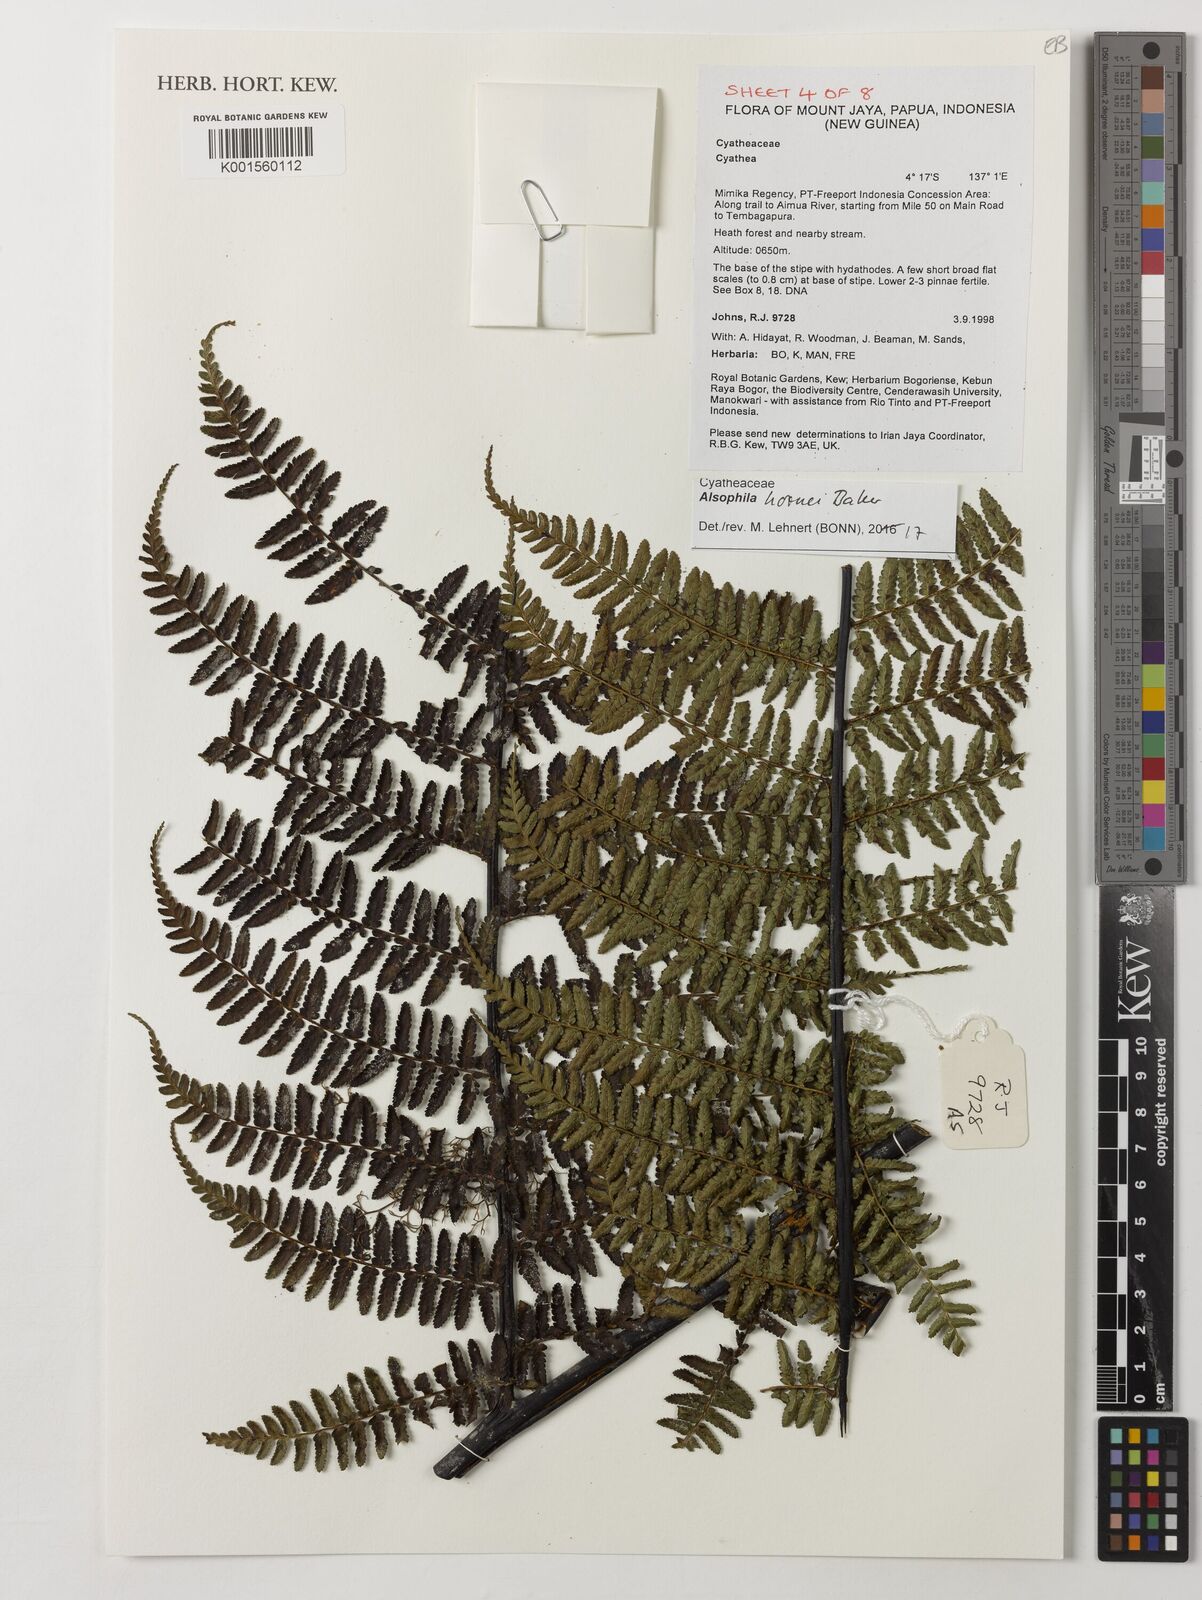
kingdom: Plantae
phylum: Tracheophyta
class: Polypodiopsida
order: Cyatheales
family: Cyatheaceae
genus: Gymnosphaera
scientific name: Gymnosphaera hornei
